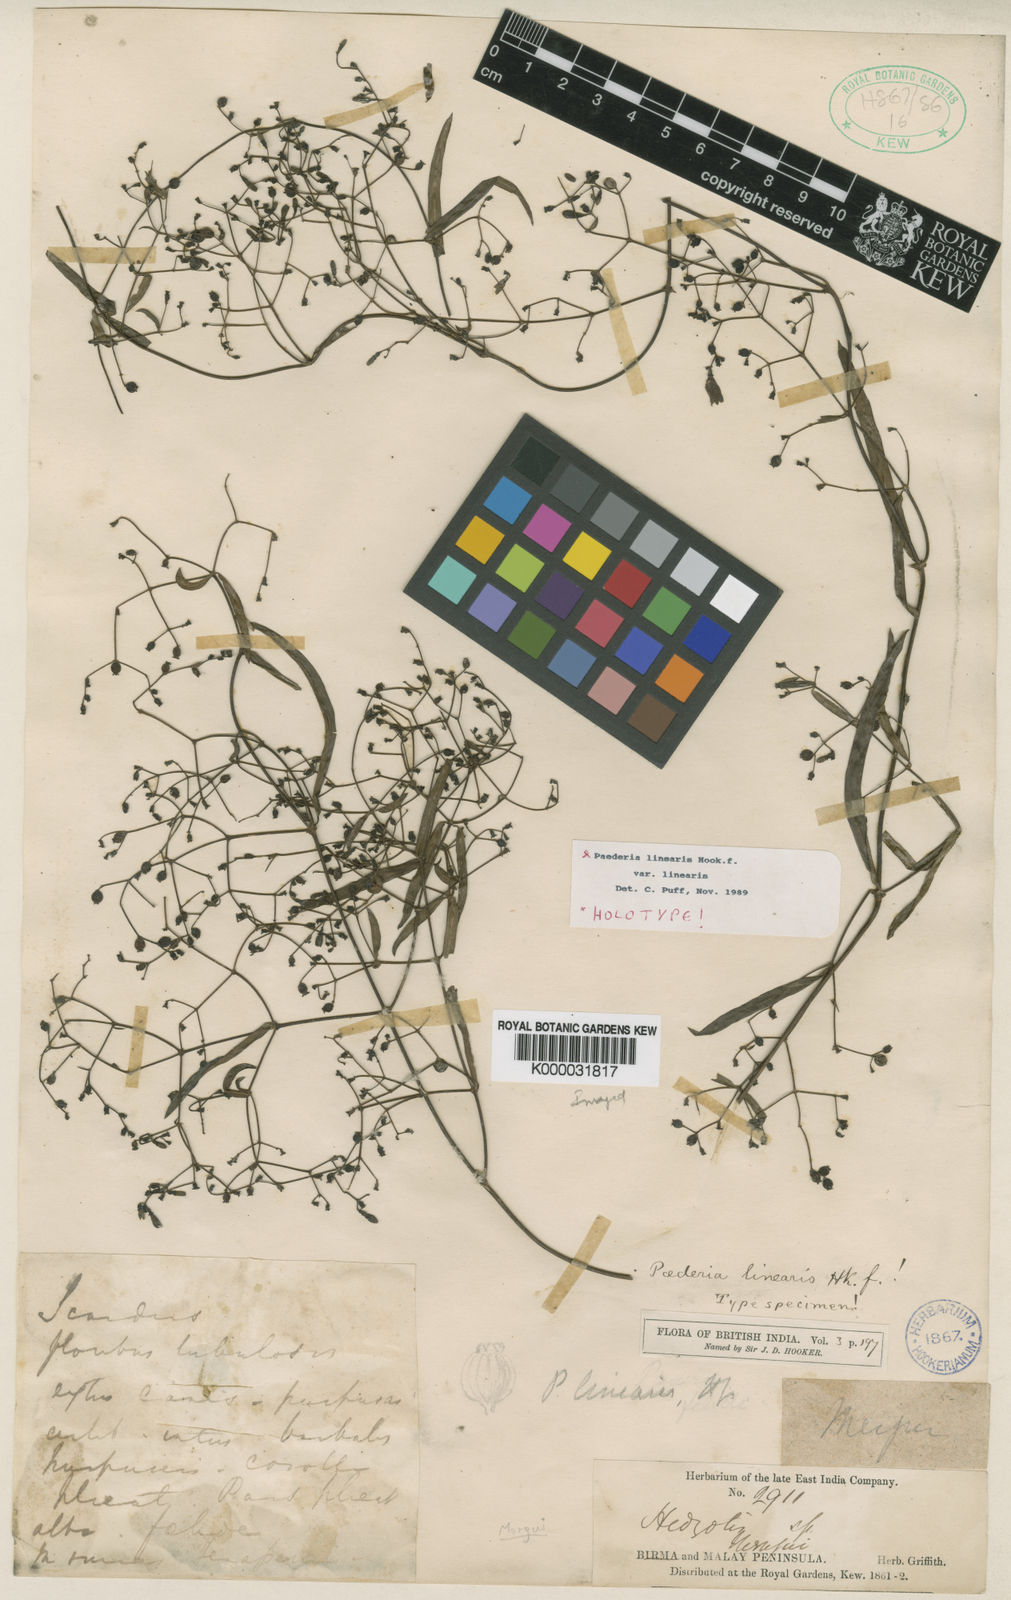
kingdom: Plantae
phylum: Tracheophyta
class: Magnoliopsida
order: Gentianales
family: Rubiaceae
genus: Paederia
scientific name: Paederia linearis
